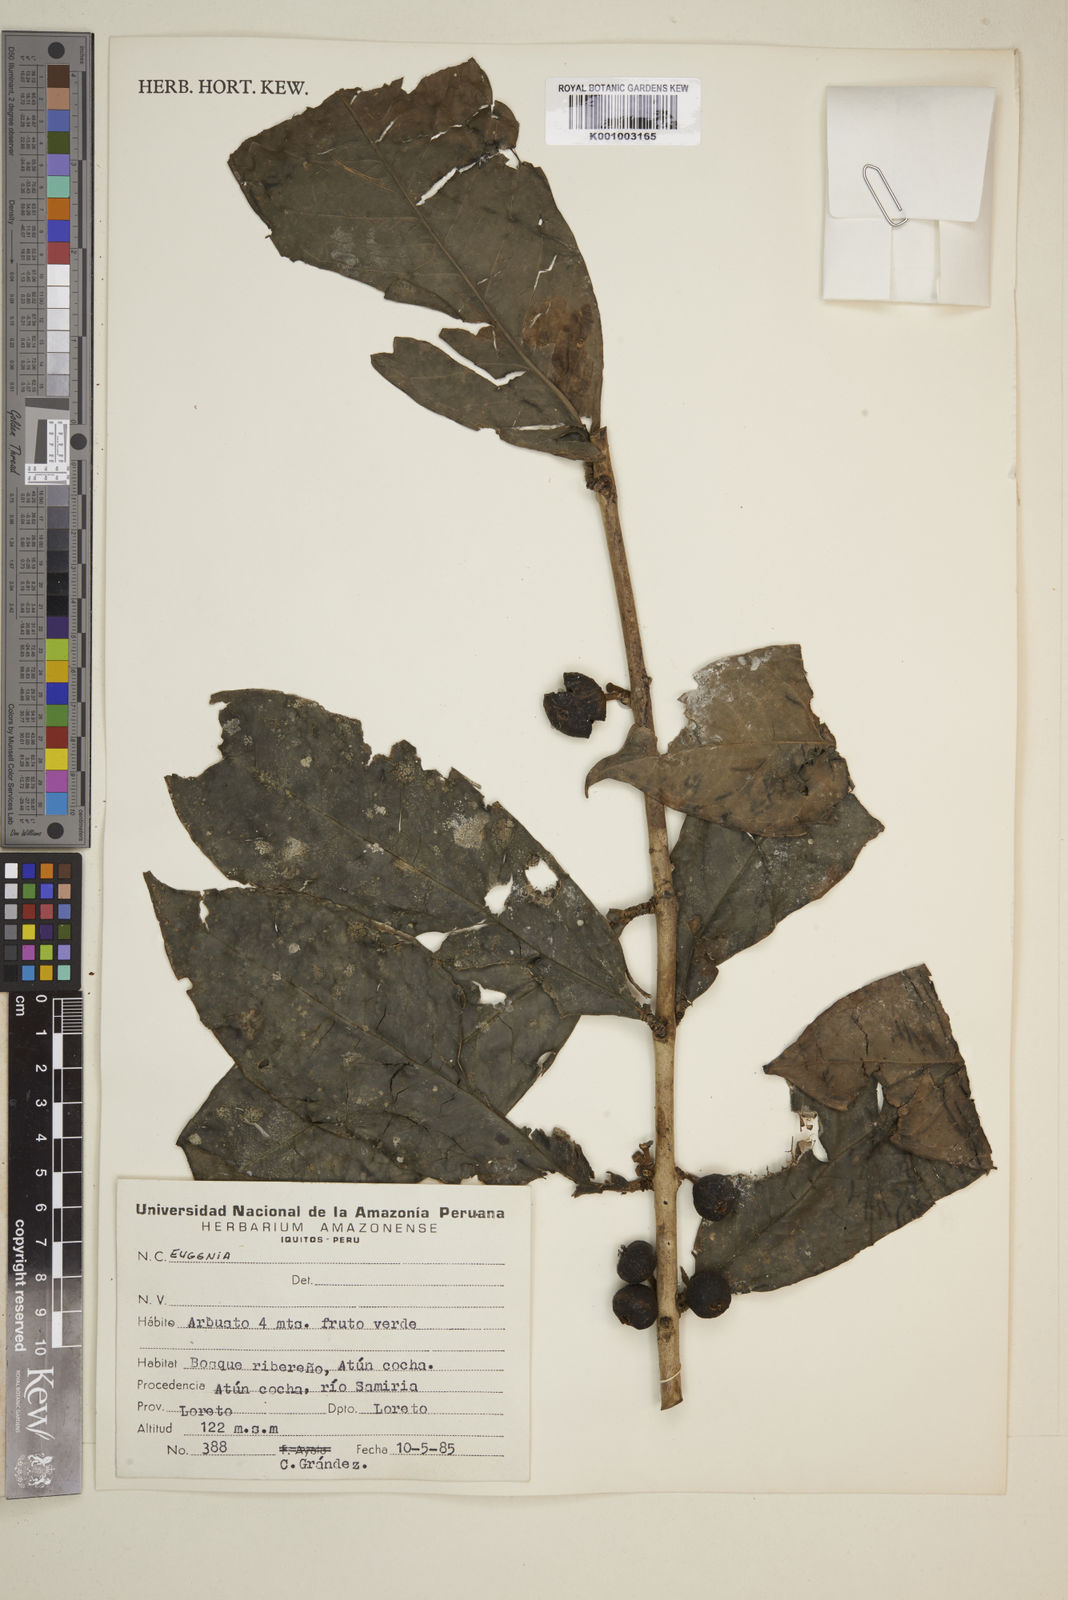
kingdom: Plantae
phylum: Tracheophyta
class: Magnoliopsida
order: Myrtales
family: Myrtaceae
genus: Eugenia
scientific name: Eugenia
